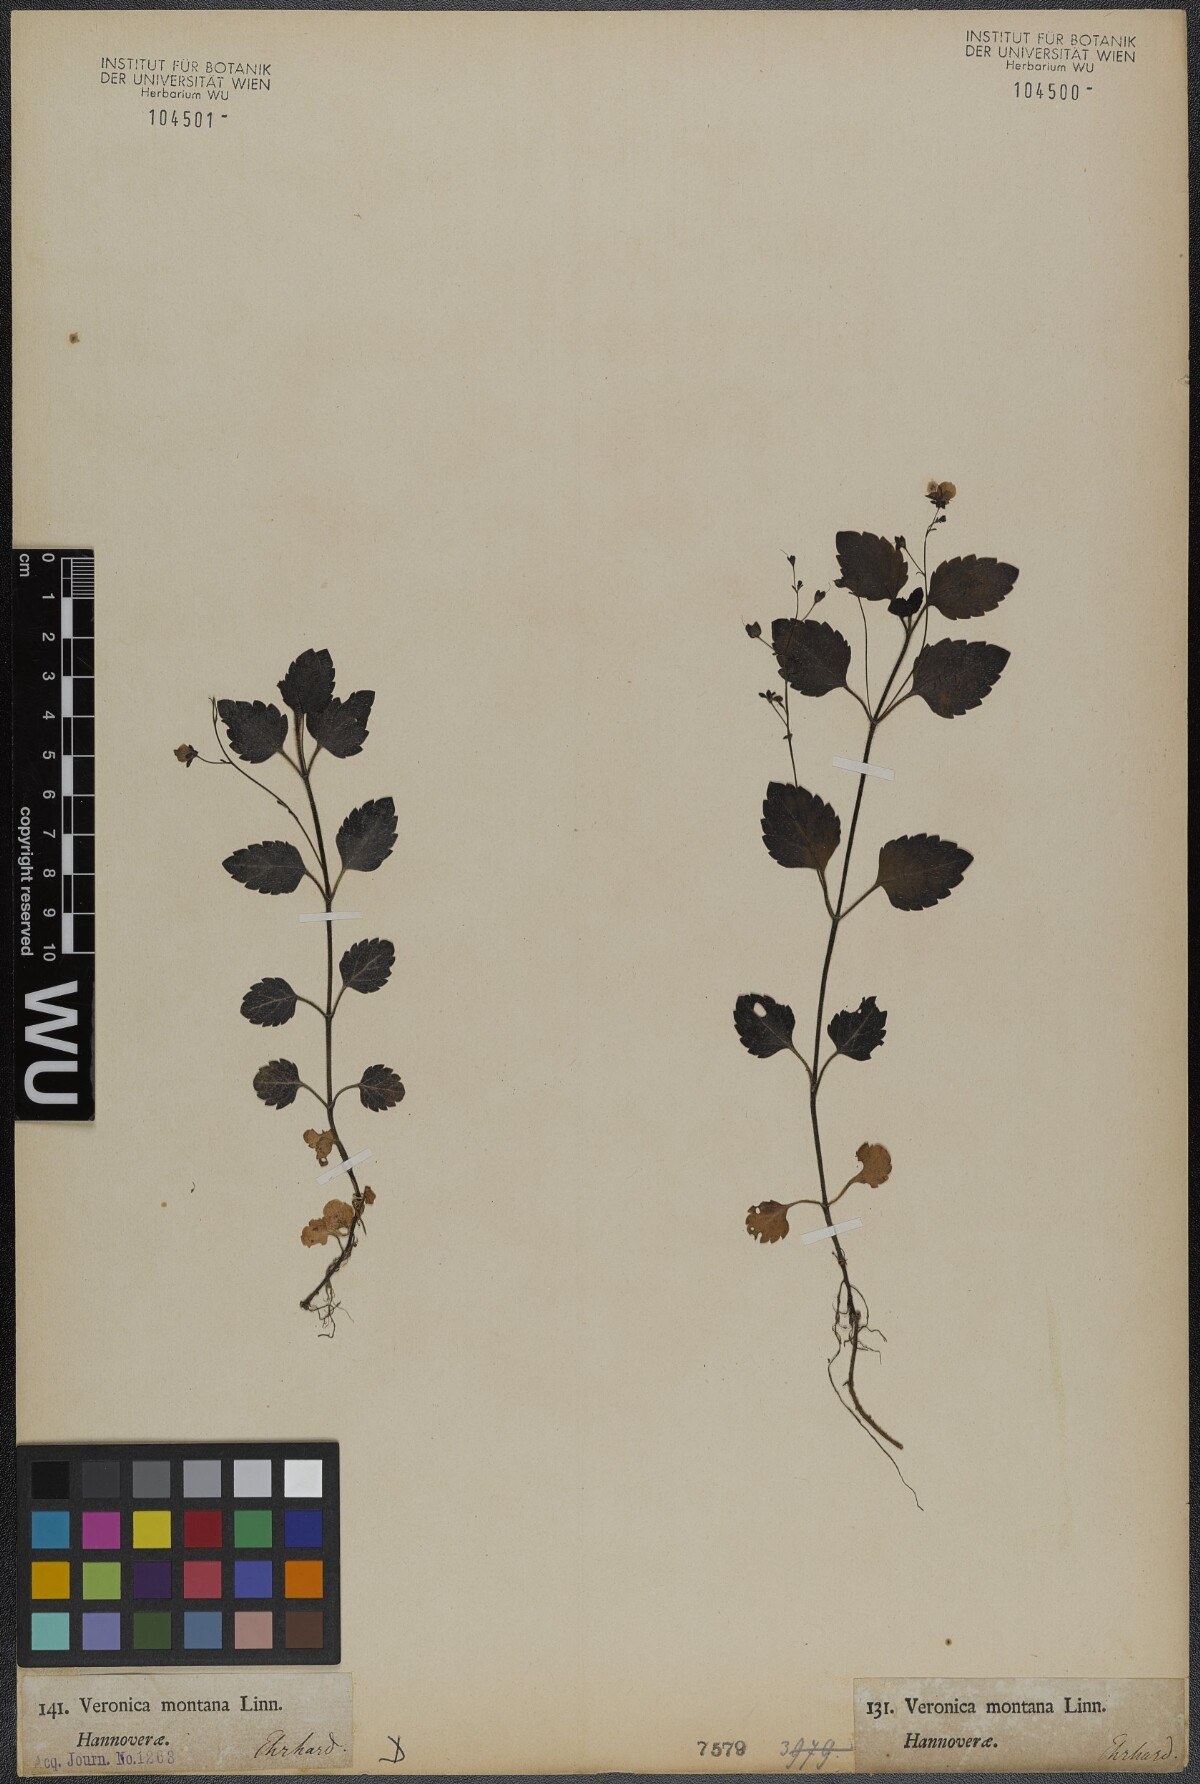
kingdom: Plantae
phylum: Tracheophyta
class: Magnoliopsida
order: Lamiales
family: Plantaginaceae
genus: Veronica
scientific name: Veronica montana
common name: Wood speedwell
